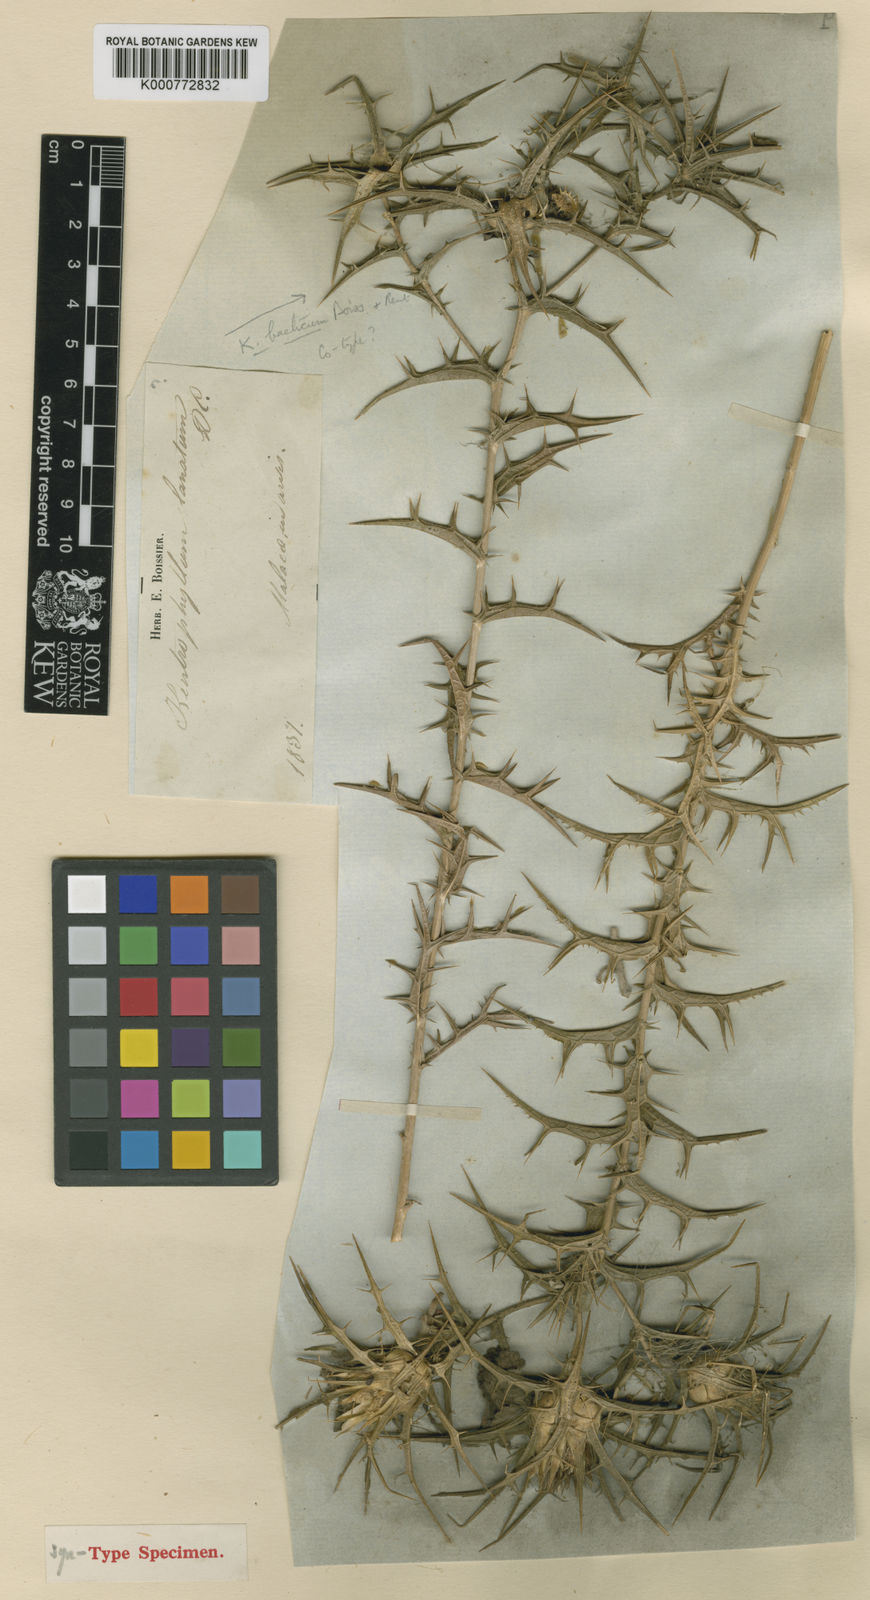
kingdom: Plantae
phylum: Tracheophyta
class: Magnoliopsida
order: Asterales
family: Asteraceae
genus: Carthamus
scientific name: Carthamus lanatus
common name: Downy safflower
